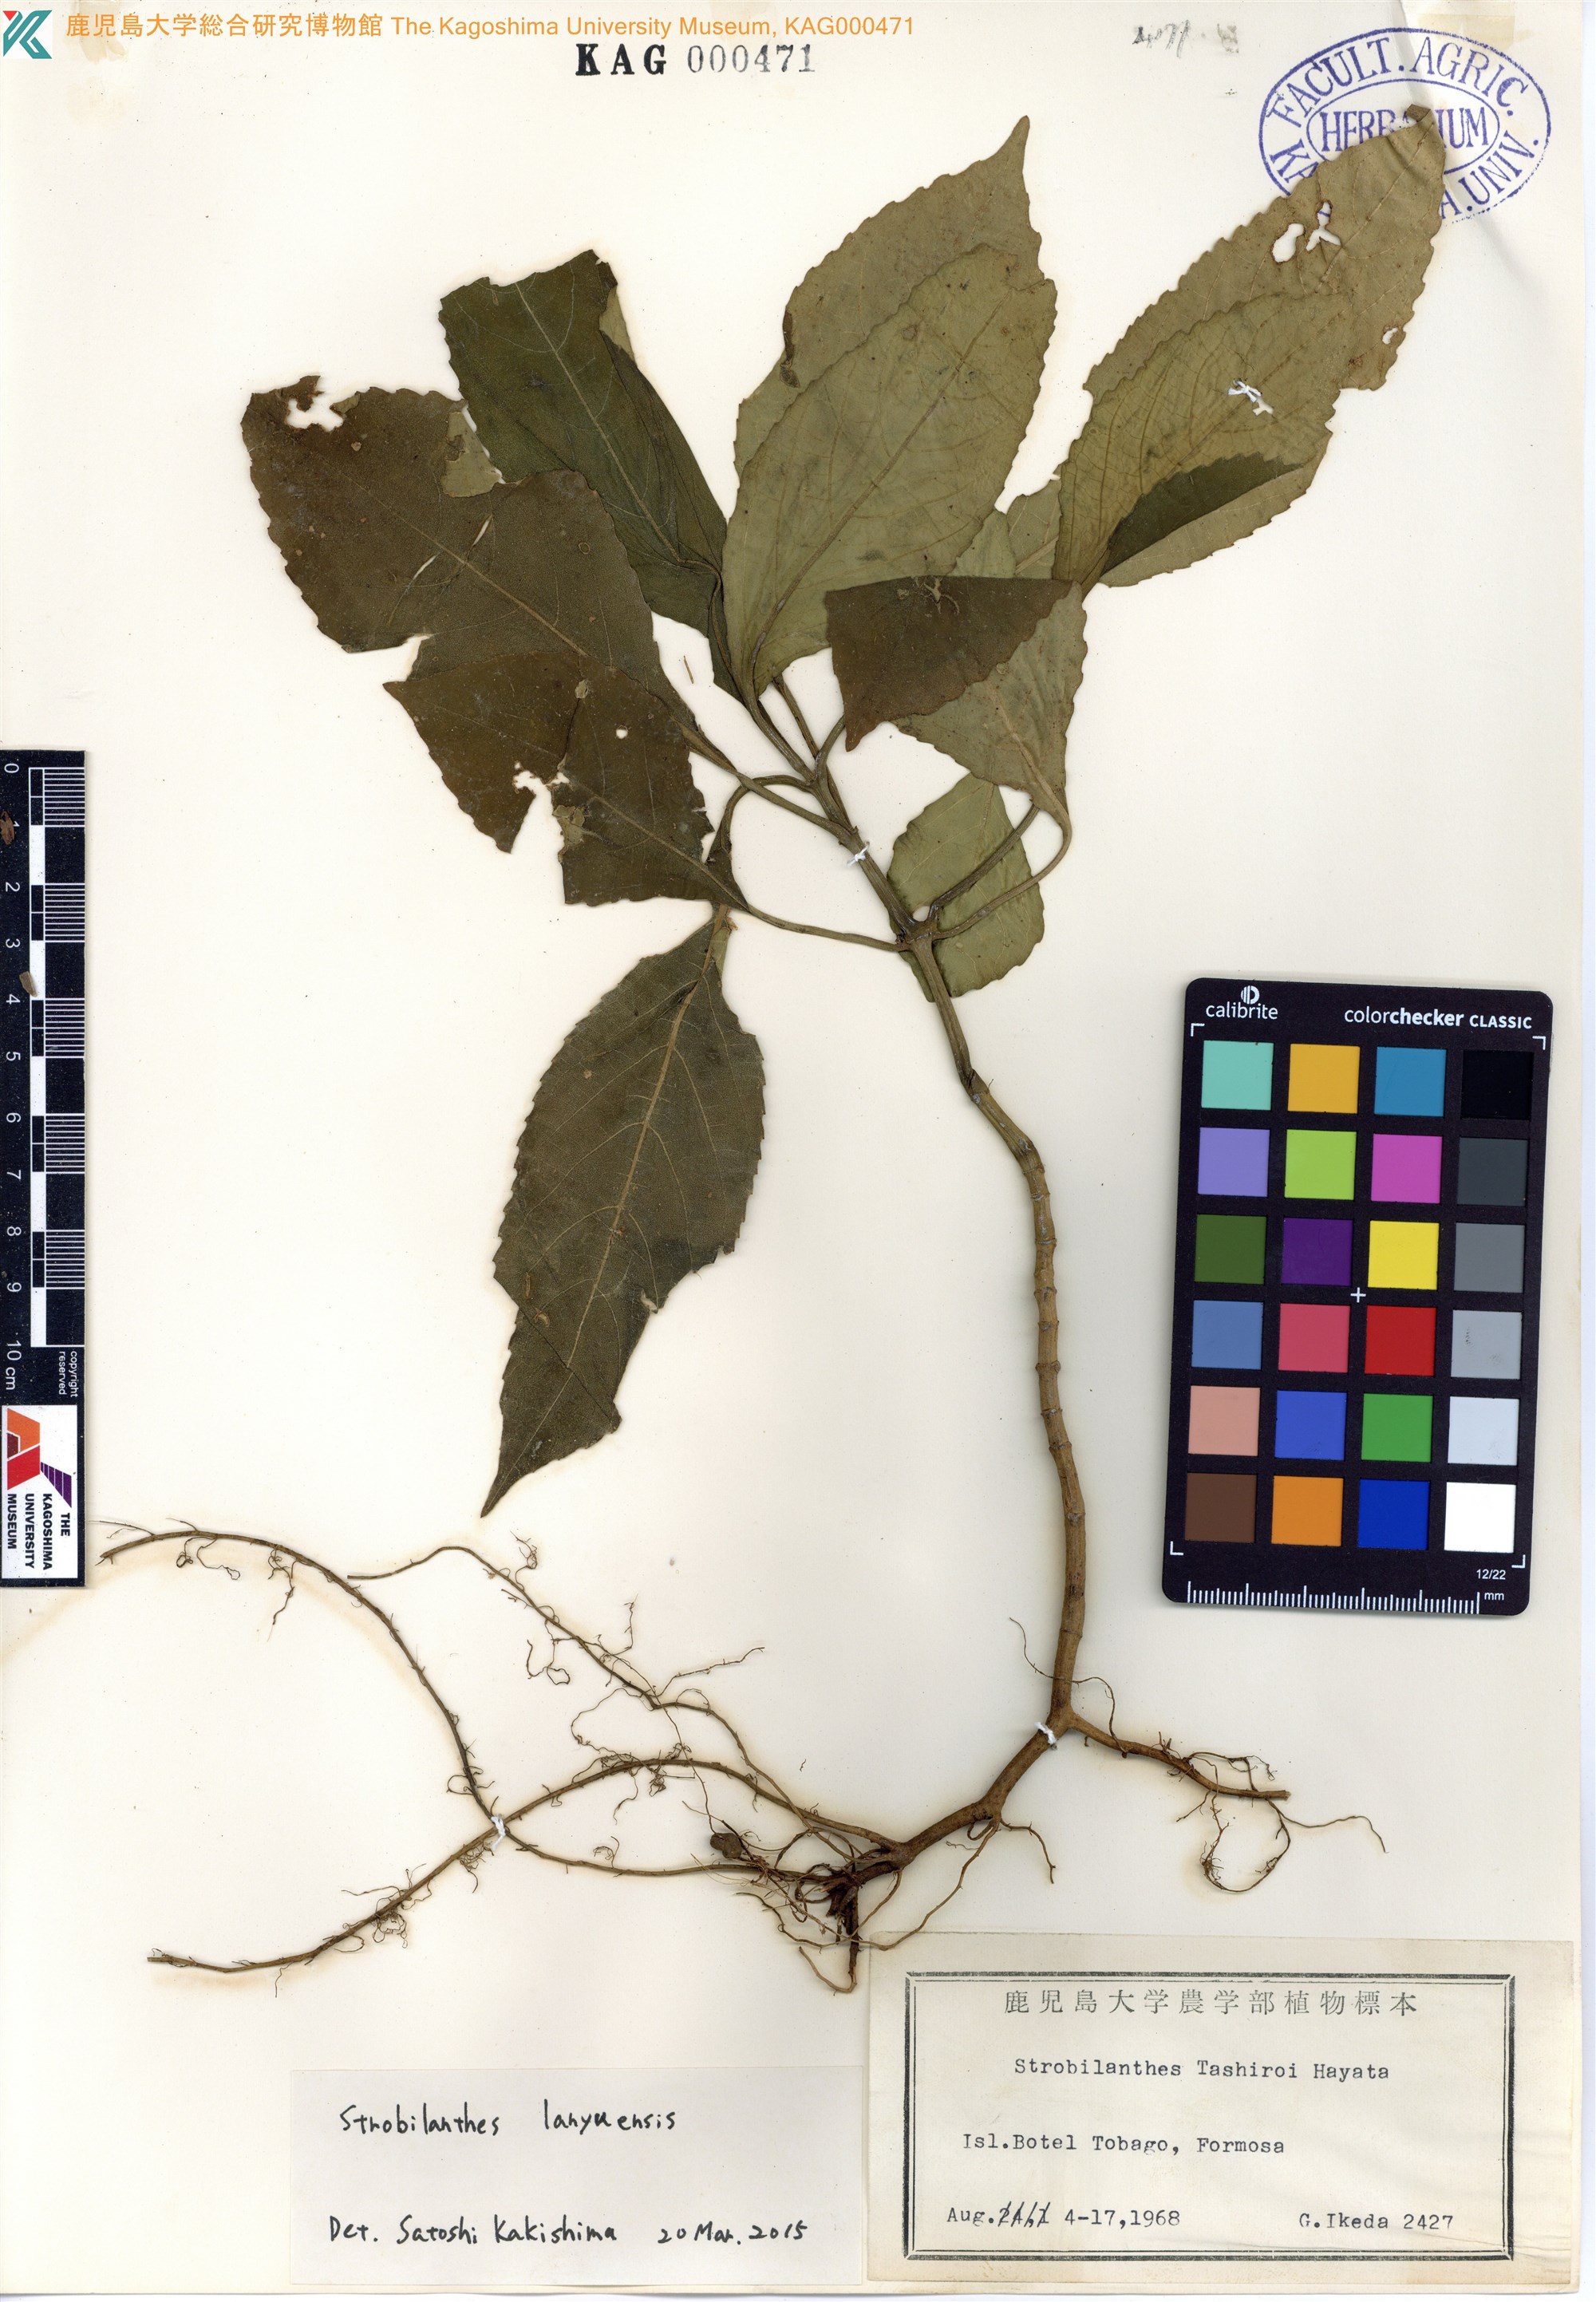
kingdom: Plantae
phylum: Tracheophyta
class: Magnoliopsida
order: Lamiales
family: Acanthaceae
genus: Strobilanthes
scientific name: Strobilanthes flexicaulis
